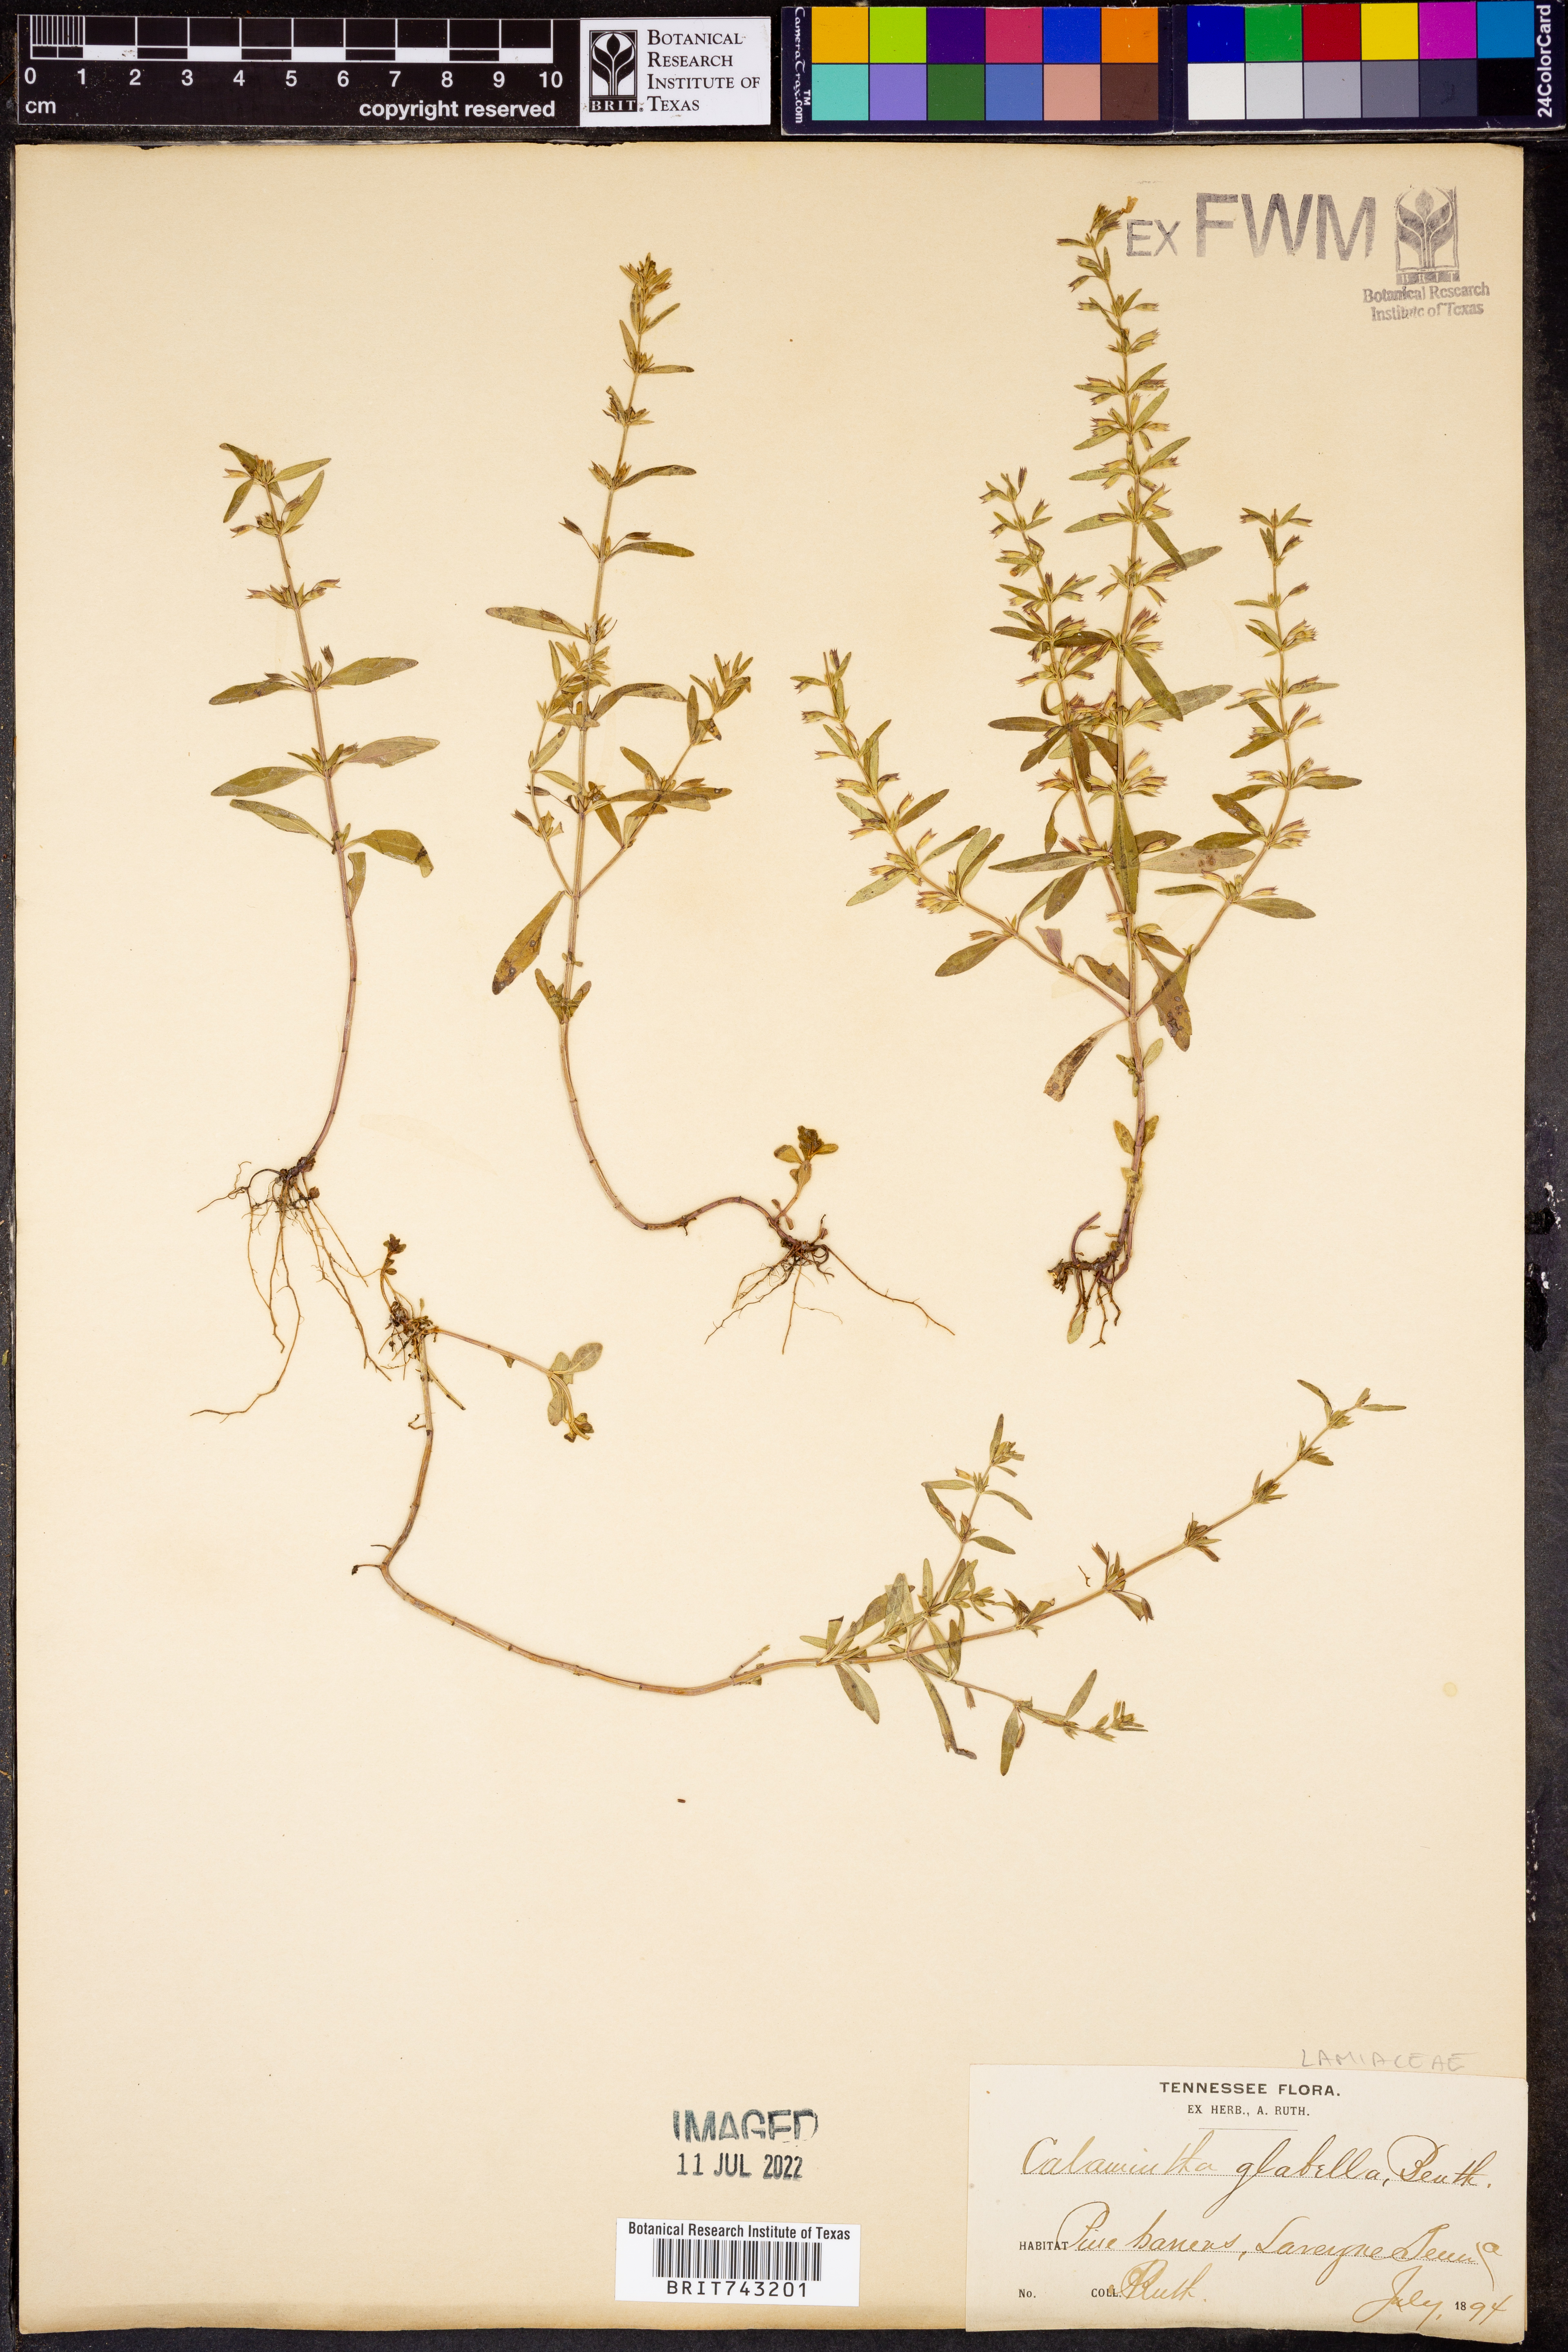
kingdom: Plantae
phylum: Tracheophyta
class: Magnoliopsida
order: Lamiales
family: Lamiaceae
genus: Clinopodium
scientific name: Clinopodium glabellum
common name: Ozark calamint
